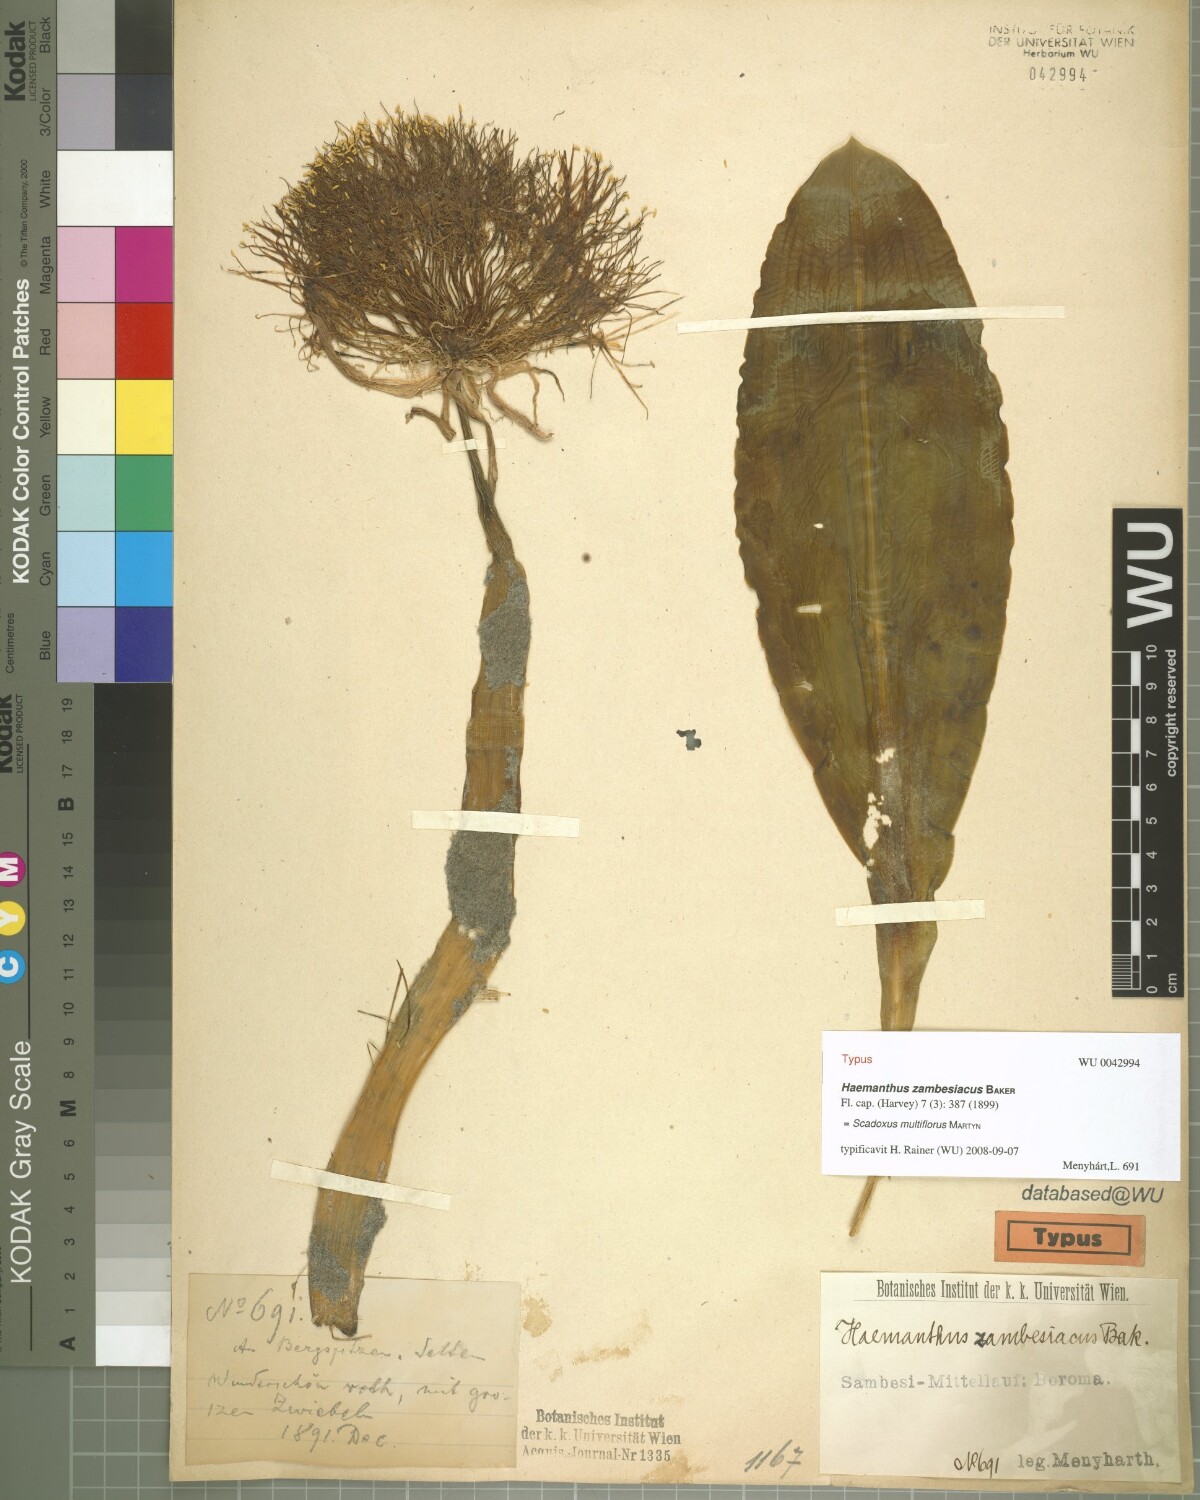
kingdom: Plantae
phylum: Tracheophyta
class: Liliopsida
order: Asparagales
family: Amaryllidaceae
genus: Scadoxus
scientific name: Scadoxus multiflorus
